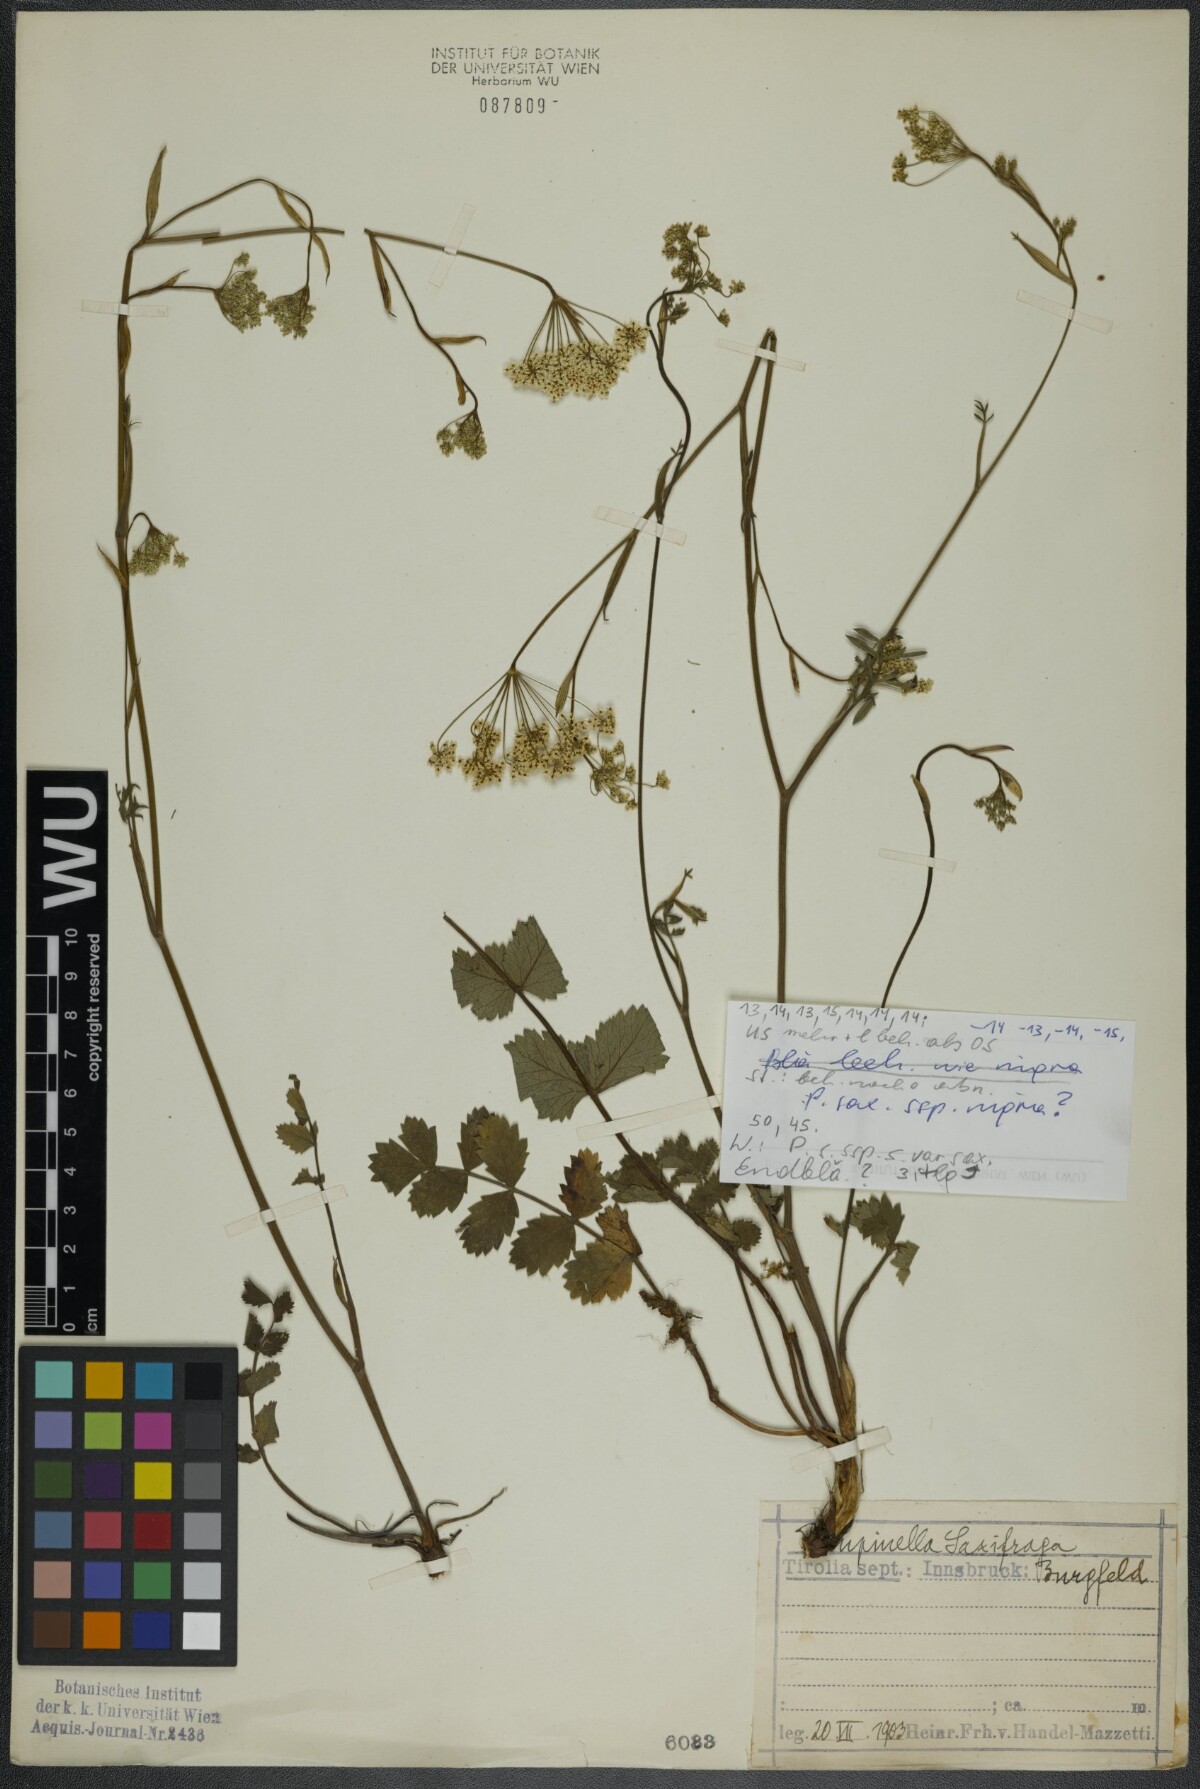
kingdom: Plantae
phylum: Tracheophyta
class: Magnoliopsida
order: Apiales
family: Apiaceae
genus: Pimpinella
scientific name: Pimpinella saxifraga
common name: Burnet-saxifrage
